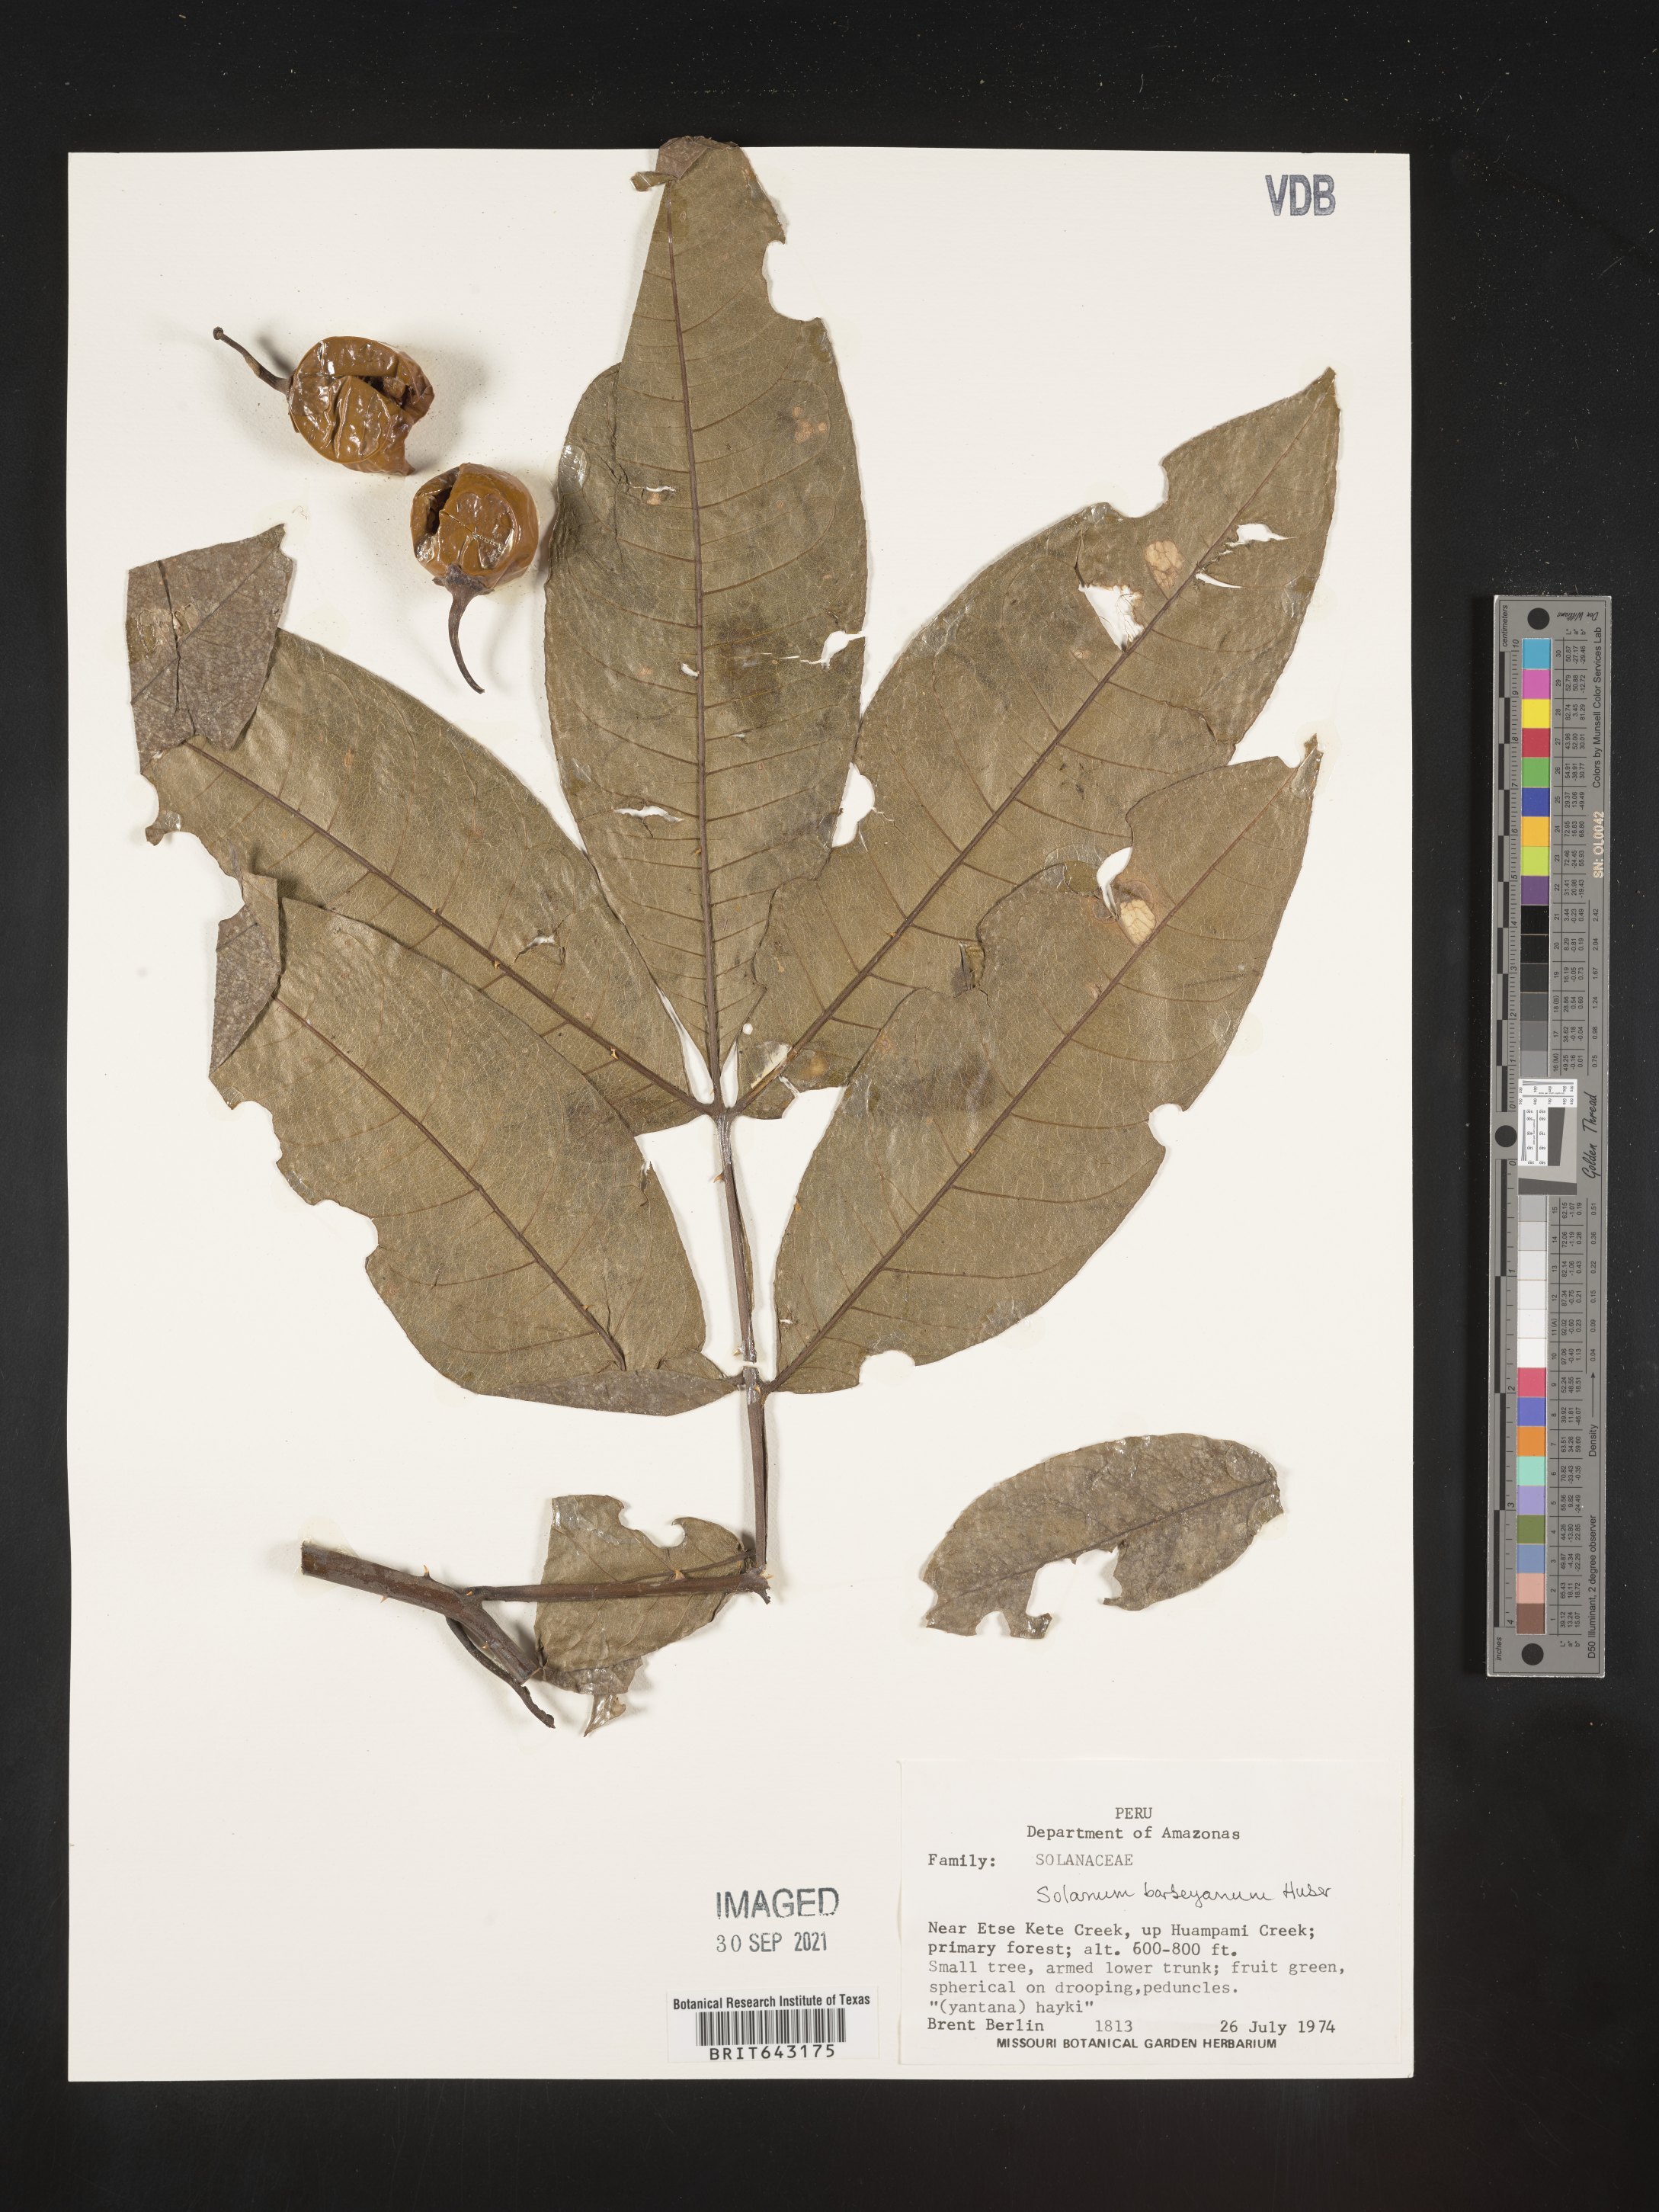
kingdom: Plantae
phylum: Tracheophyta
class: Magnoliopsida
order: Solanales
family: Solanaceae
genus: Solanum
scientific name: Solanum
